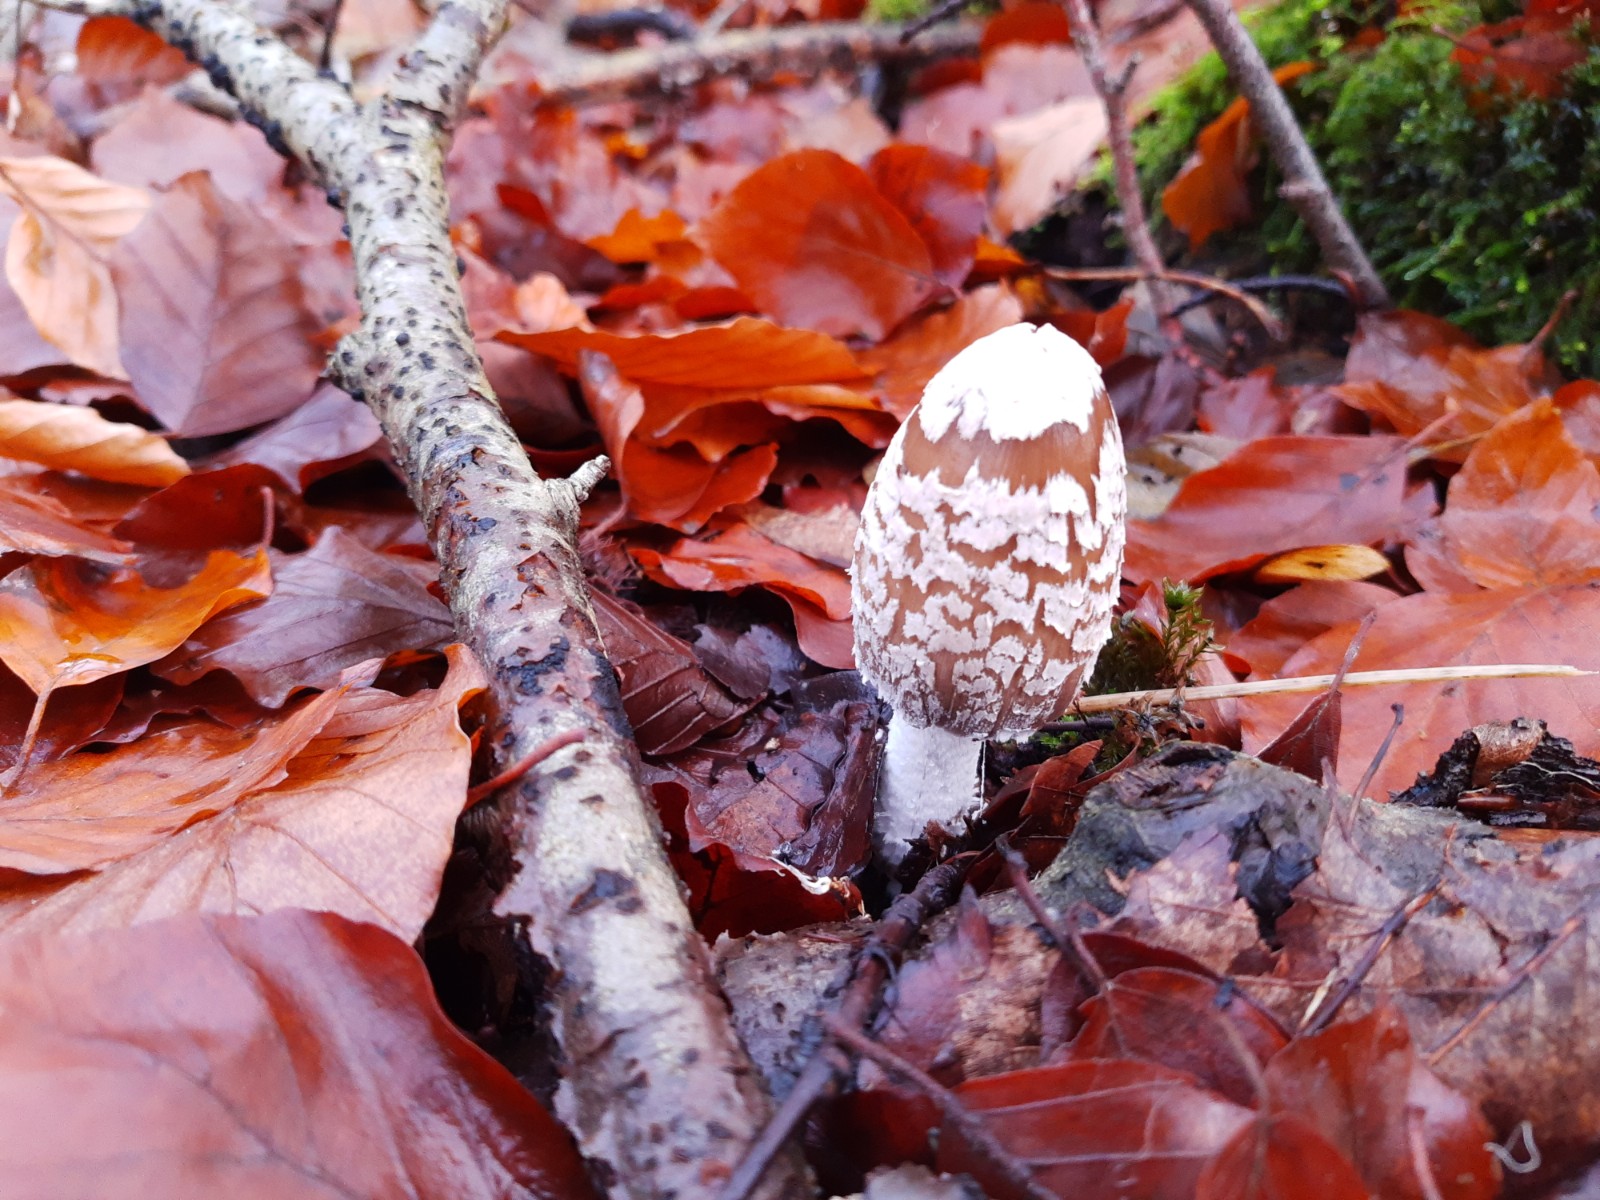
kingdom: Fungi
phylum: Basidiomycota
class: Agaricomycetes
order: Agaricales
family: Psathyrellaceae
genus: Coprinopsis
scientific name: Coprinopsis picacea
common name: skade-blækhat
